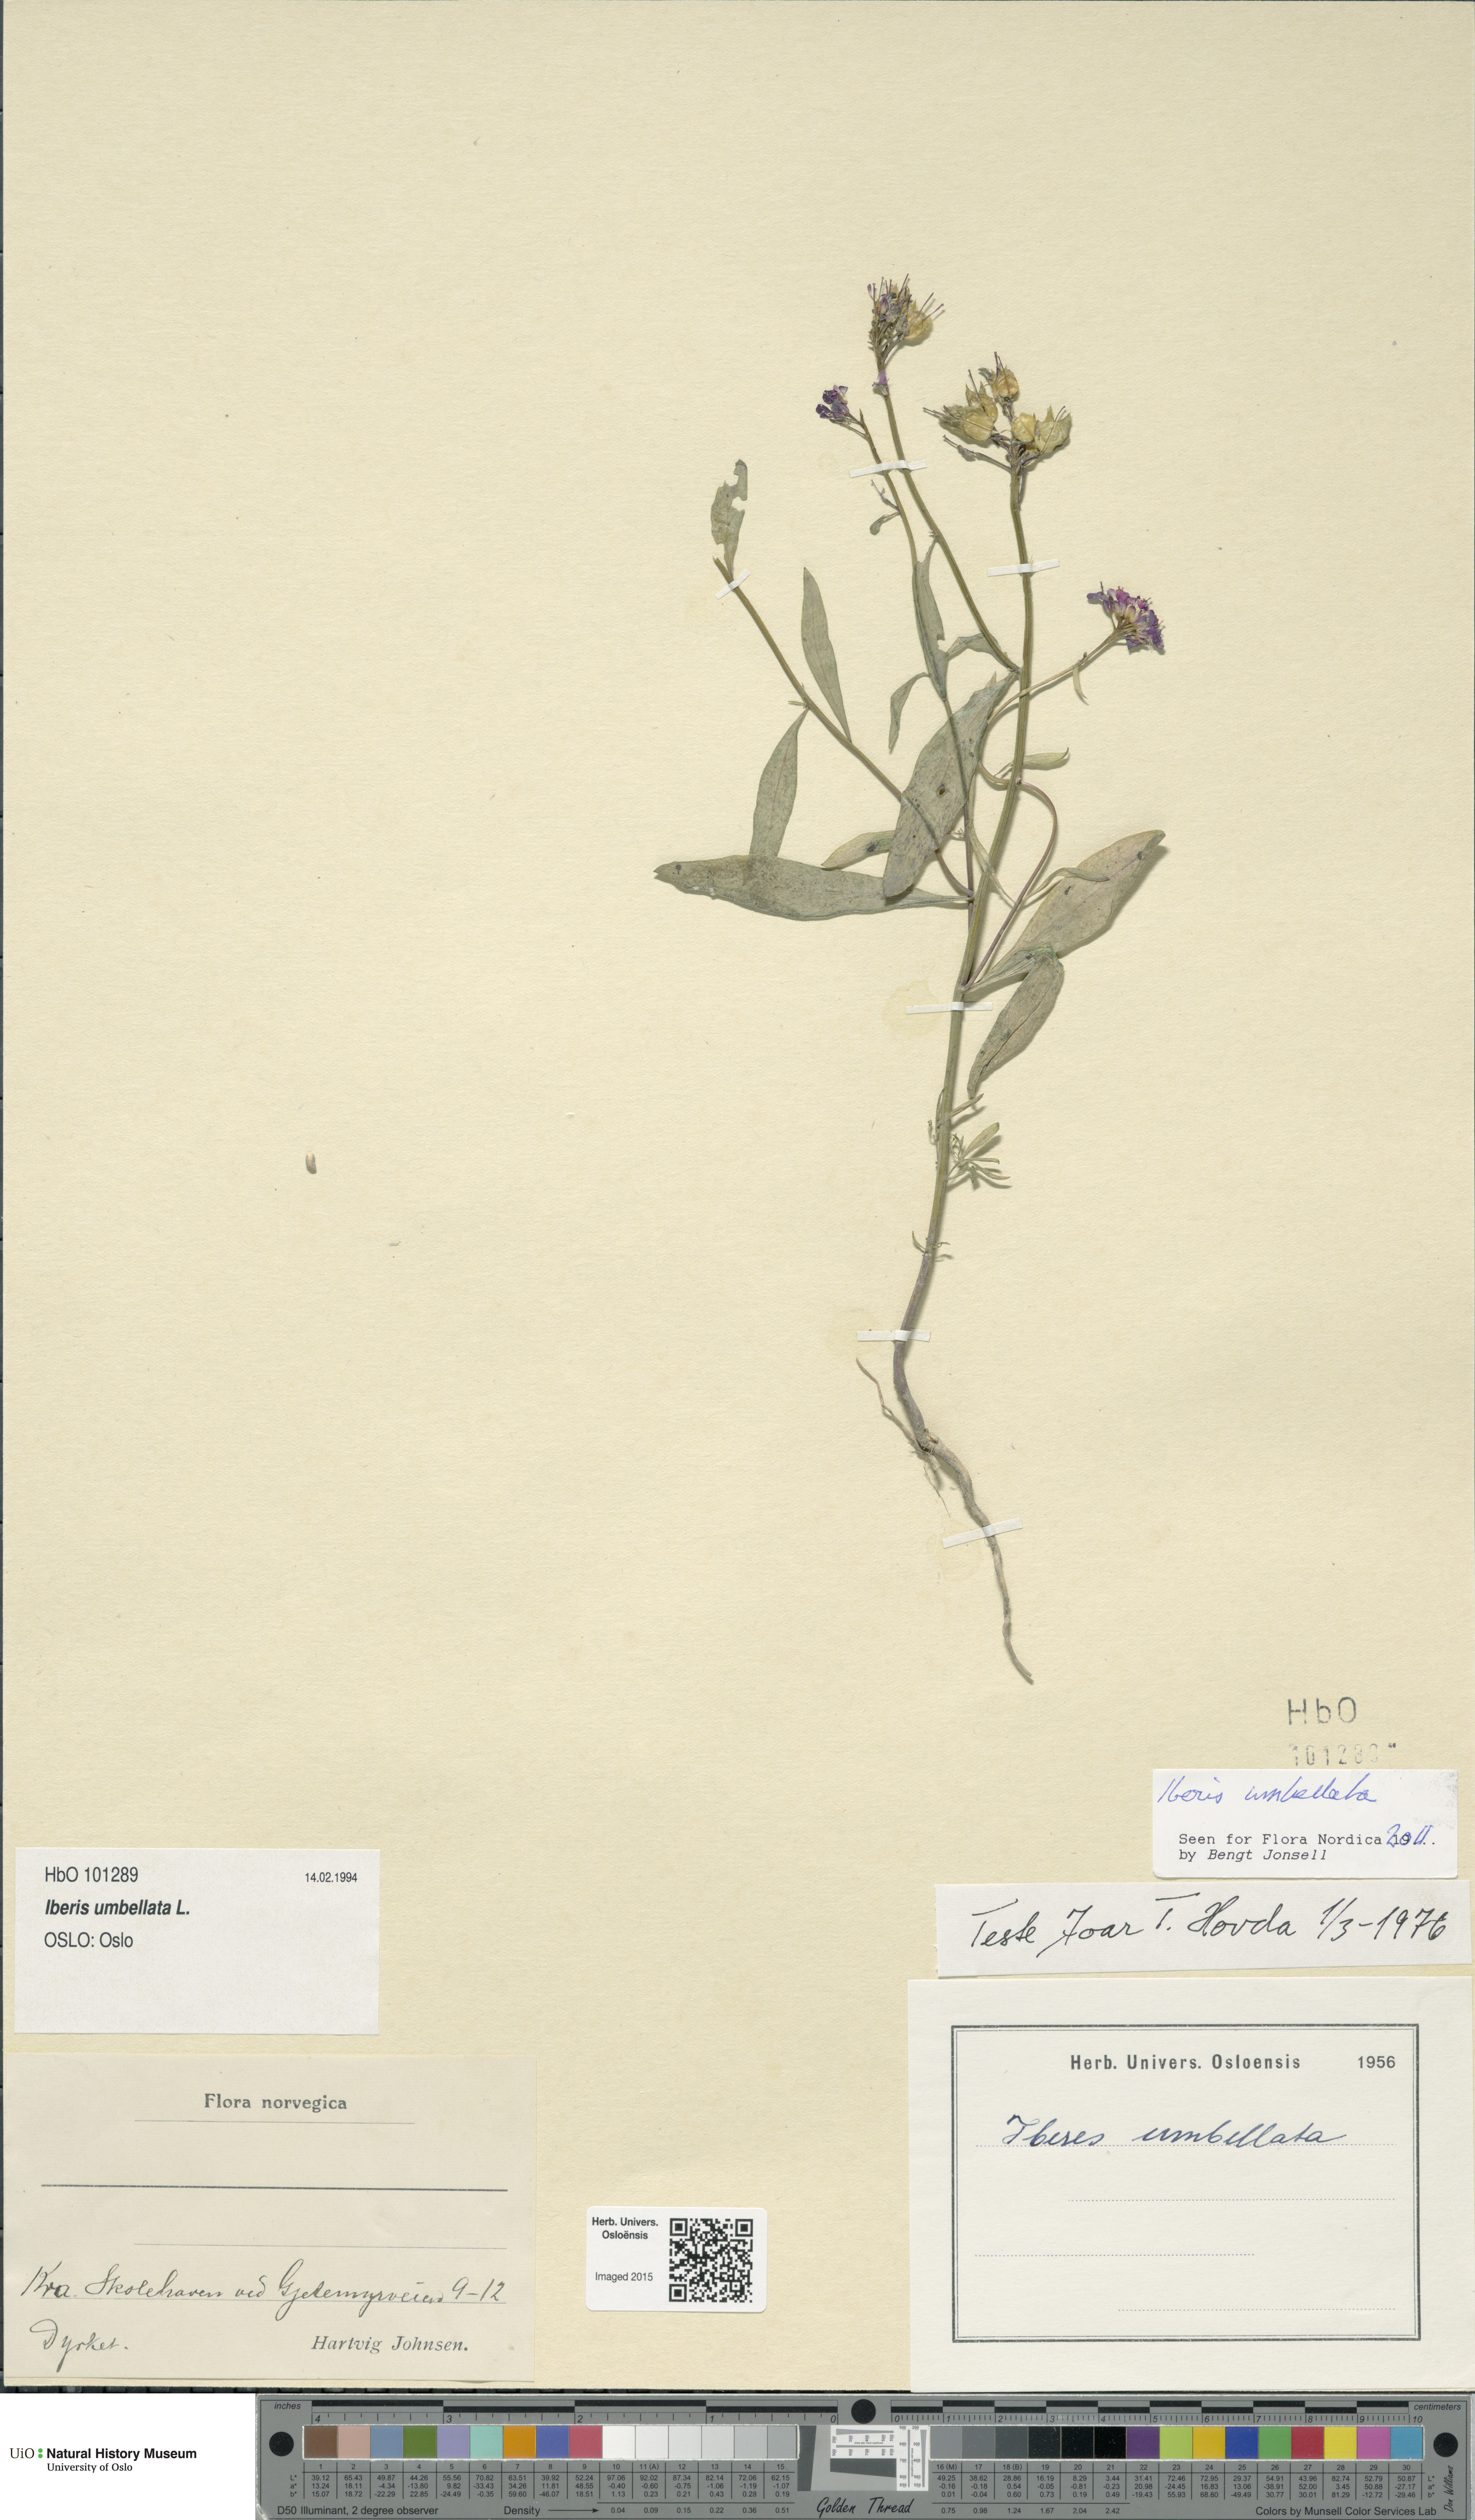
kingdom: Plantae
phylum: Tracheophyta
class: Magnoliopsida
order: Brassicales
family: Brassicaceae
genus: Iberis
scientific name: Iberis umbellata
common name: Globe candytuft
